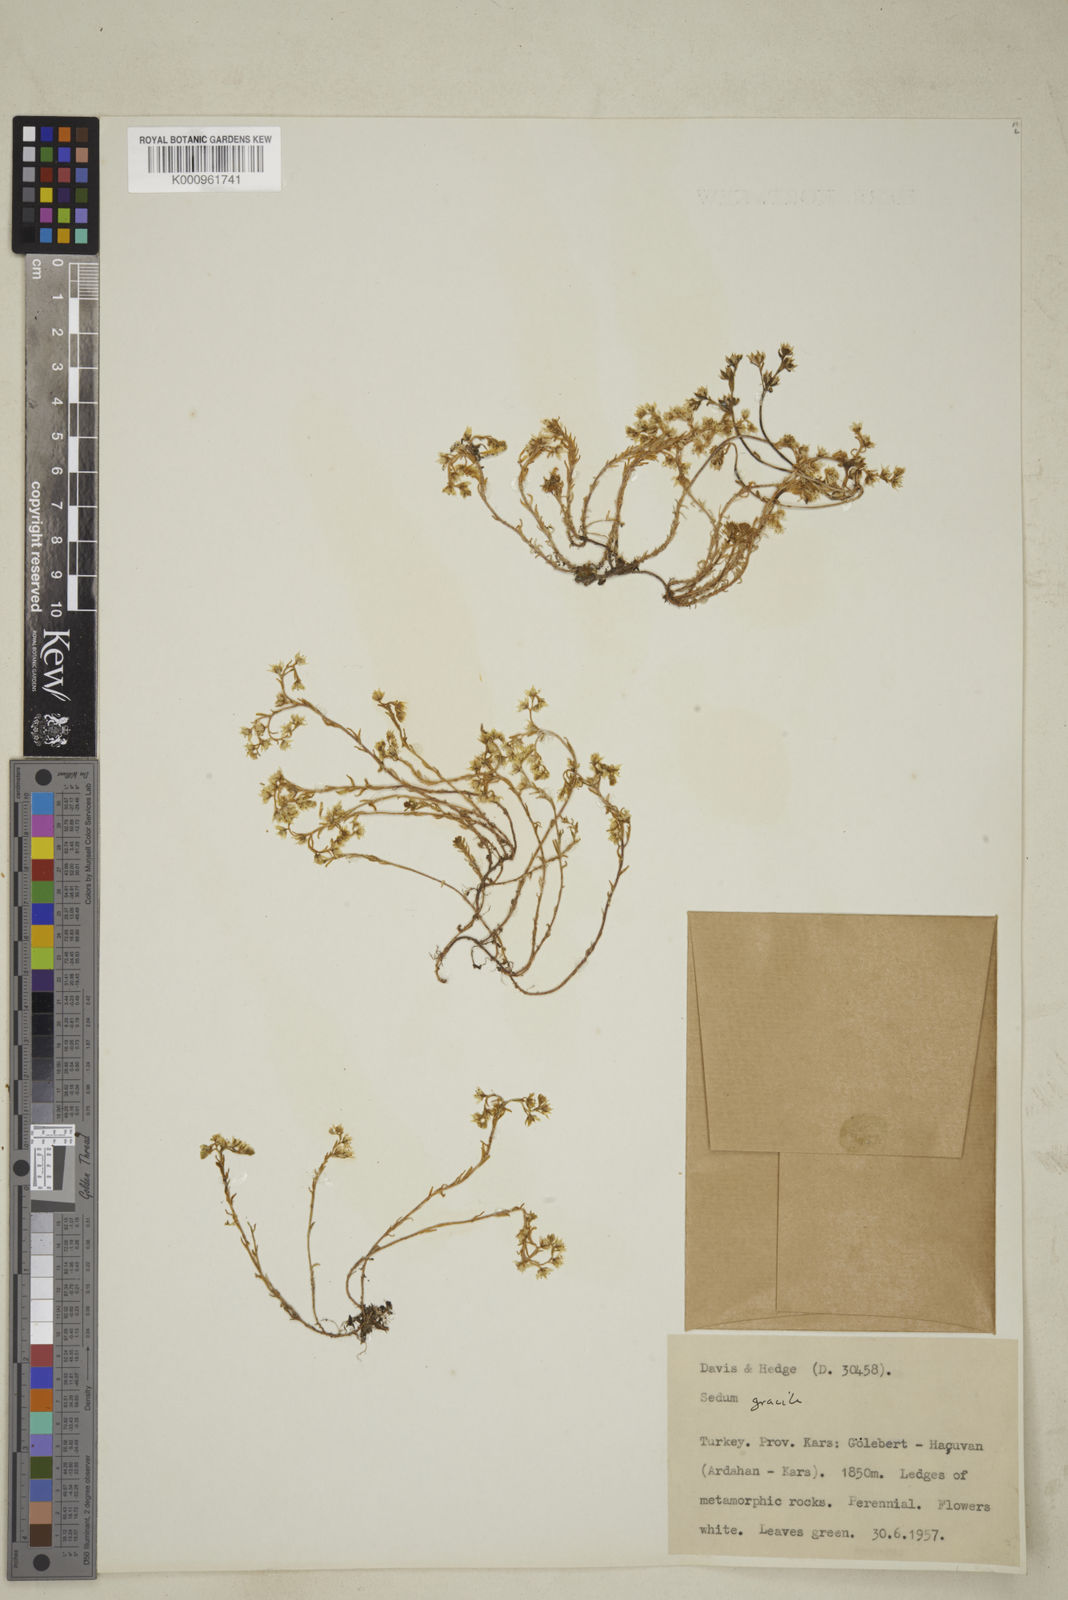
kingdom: Plantae
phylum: Tracheophyta
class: Magnoliopsida
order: Saxifragales
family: Crassulaceae
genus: Sedum
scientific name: Sedum gracile
